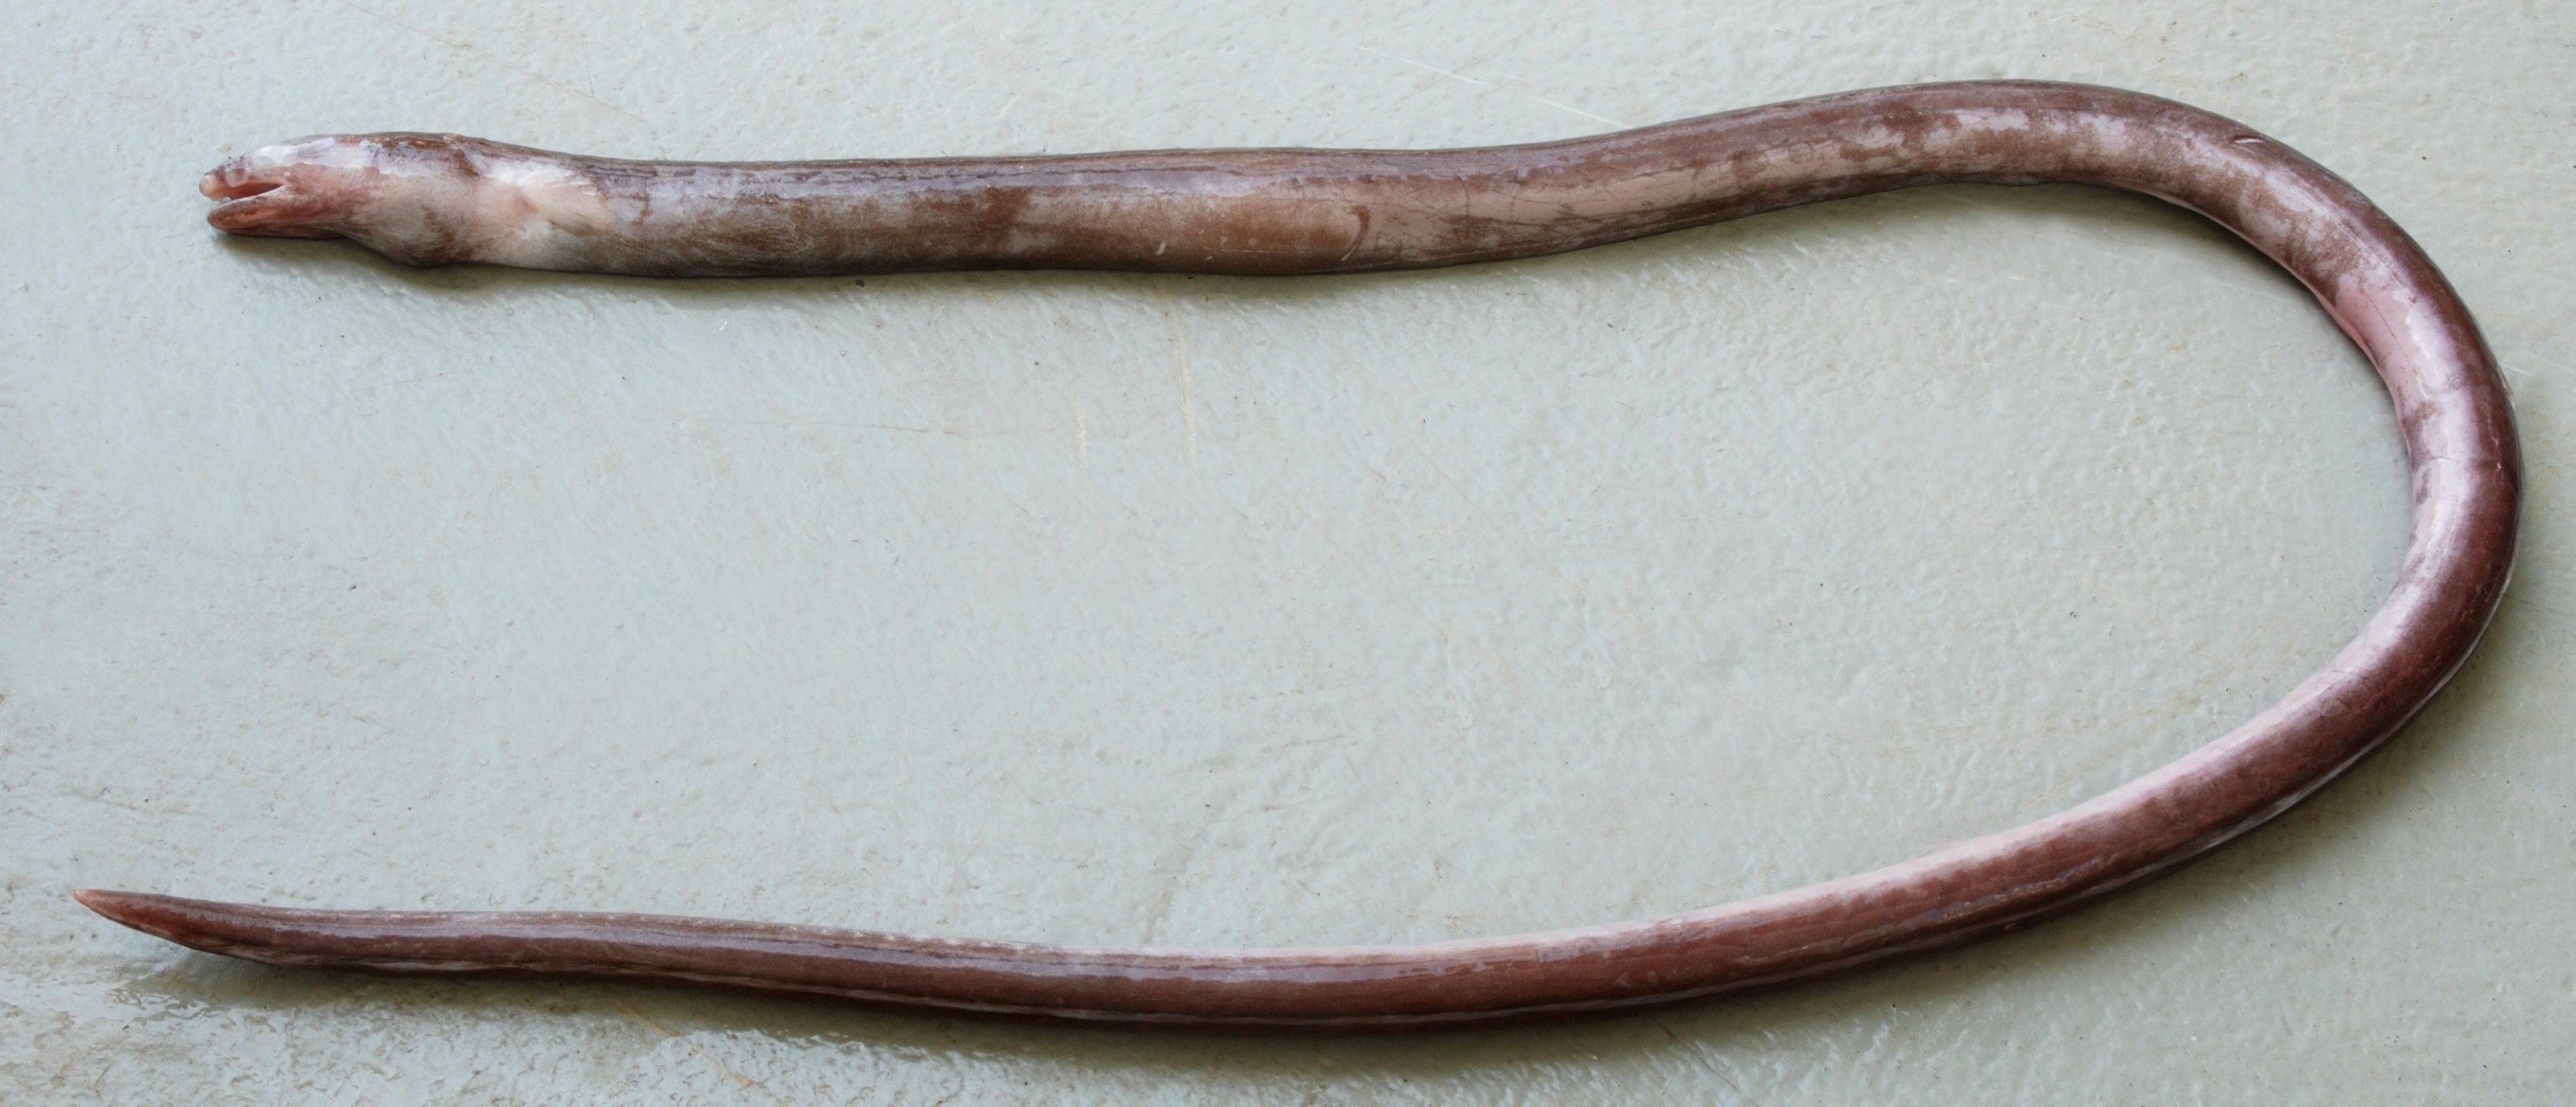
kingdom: Animalia
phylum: Chordata
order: Anguilliformes
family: Ophichthidae
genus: Ophichthus
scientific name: Ophichthus marginatus
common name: Shorthead snake-eel
